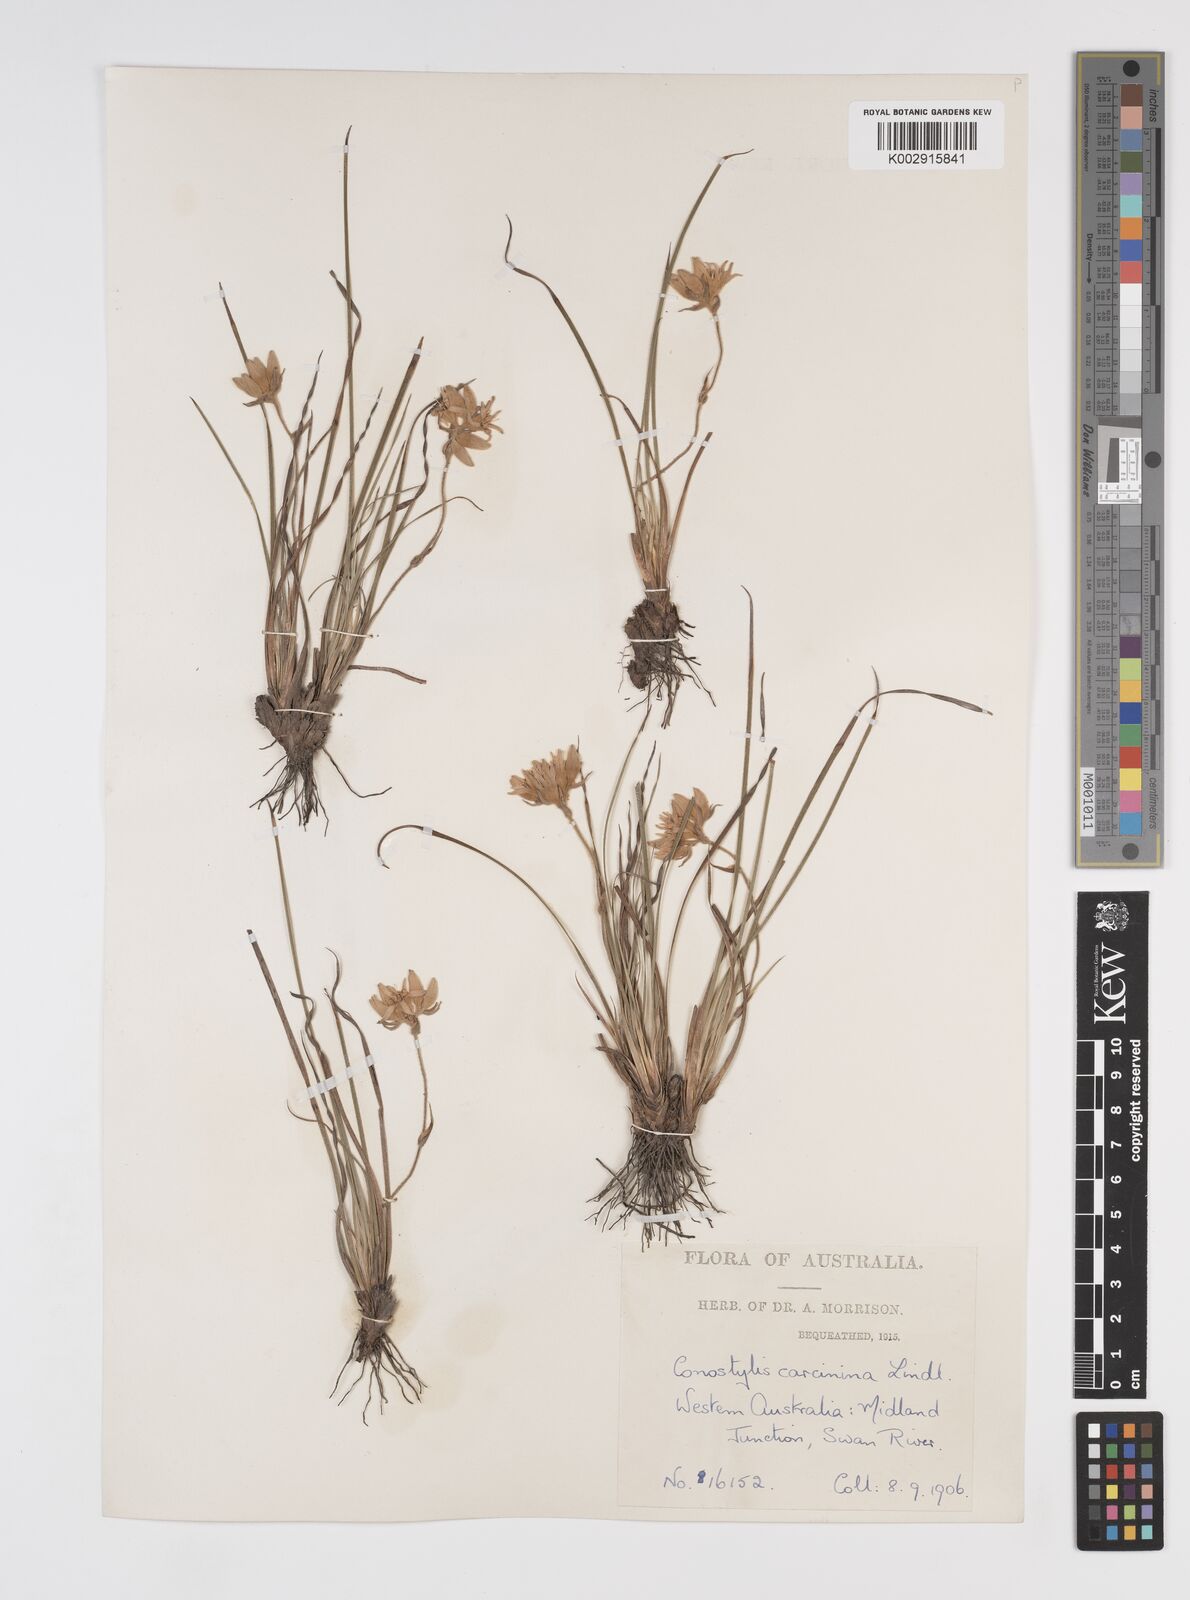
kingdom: Plantae
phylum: Tracheophyta
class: Liliopsida
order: Commelinales
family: Haemodoraceae
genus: Conostylis
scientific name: Conostylis caricina
